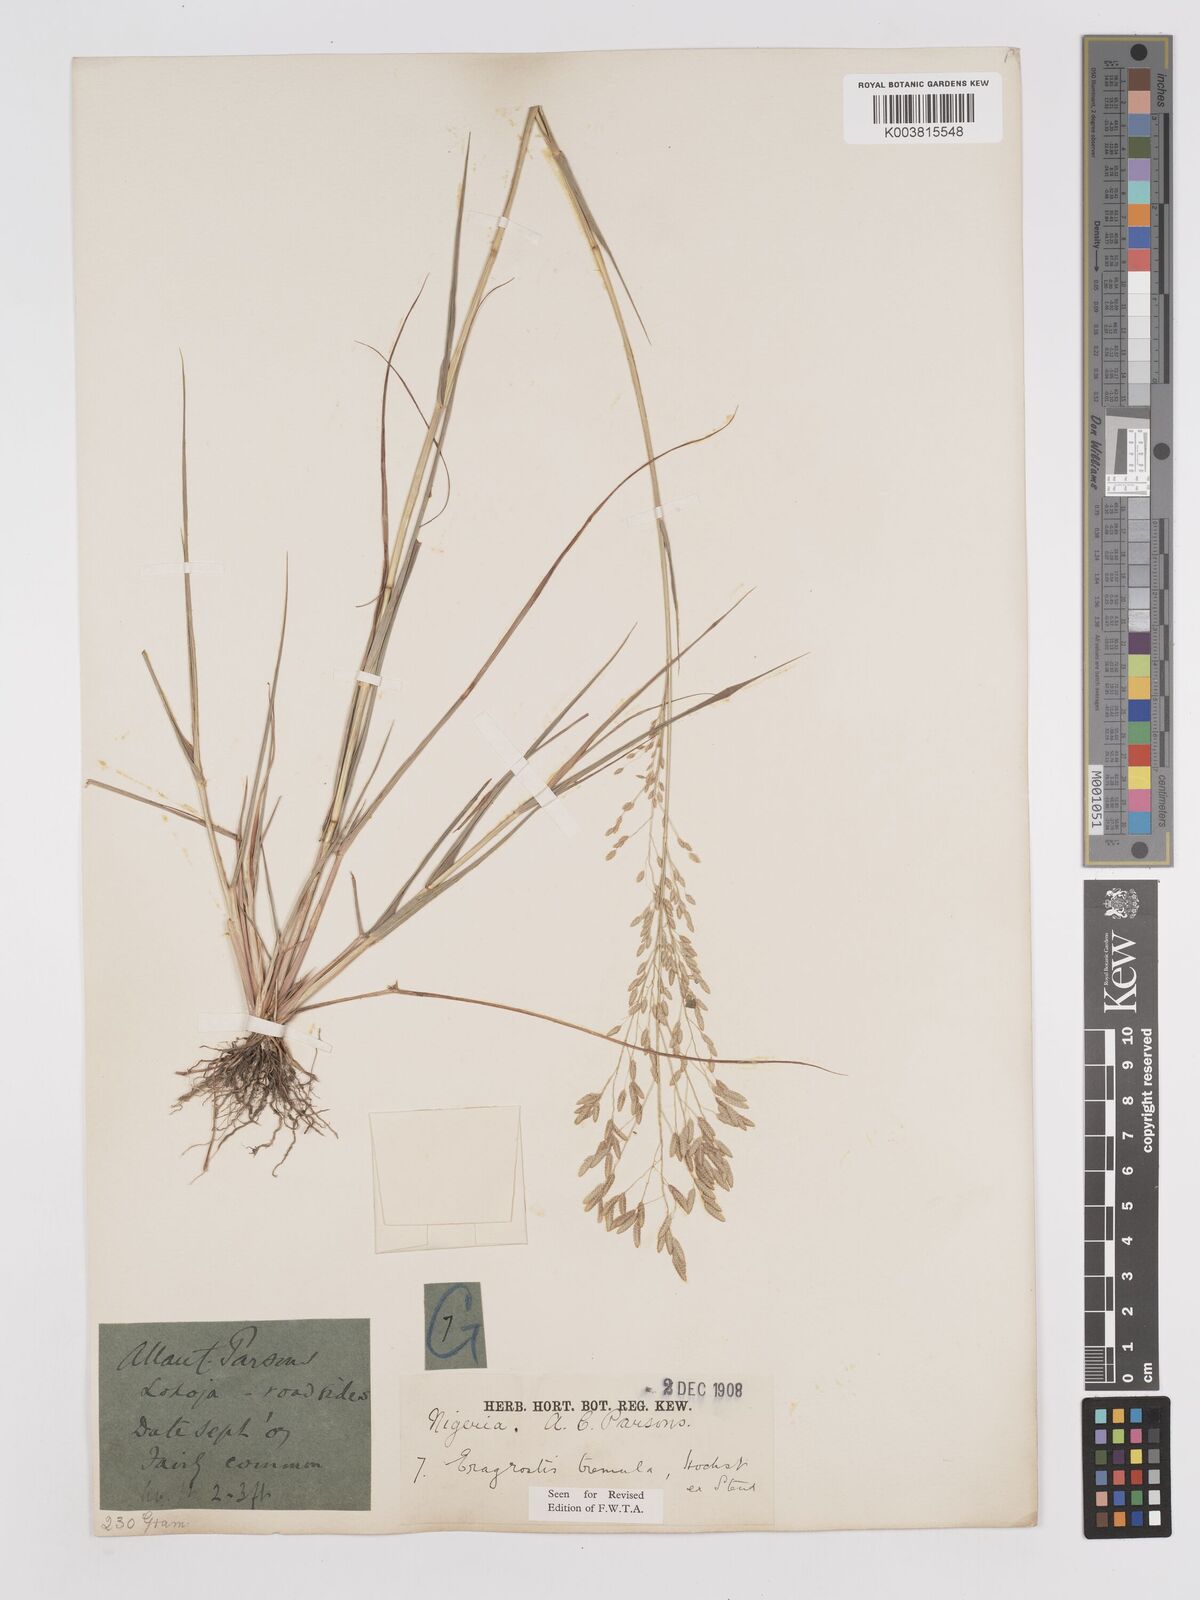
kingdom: Plantae
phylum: Tracheophyta
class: Liliopsida
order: Poales
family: Poaceae
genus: Eragrostis
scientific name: Eragrostis tremula
